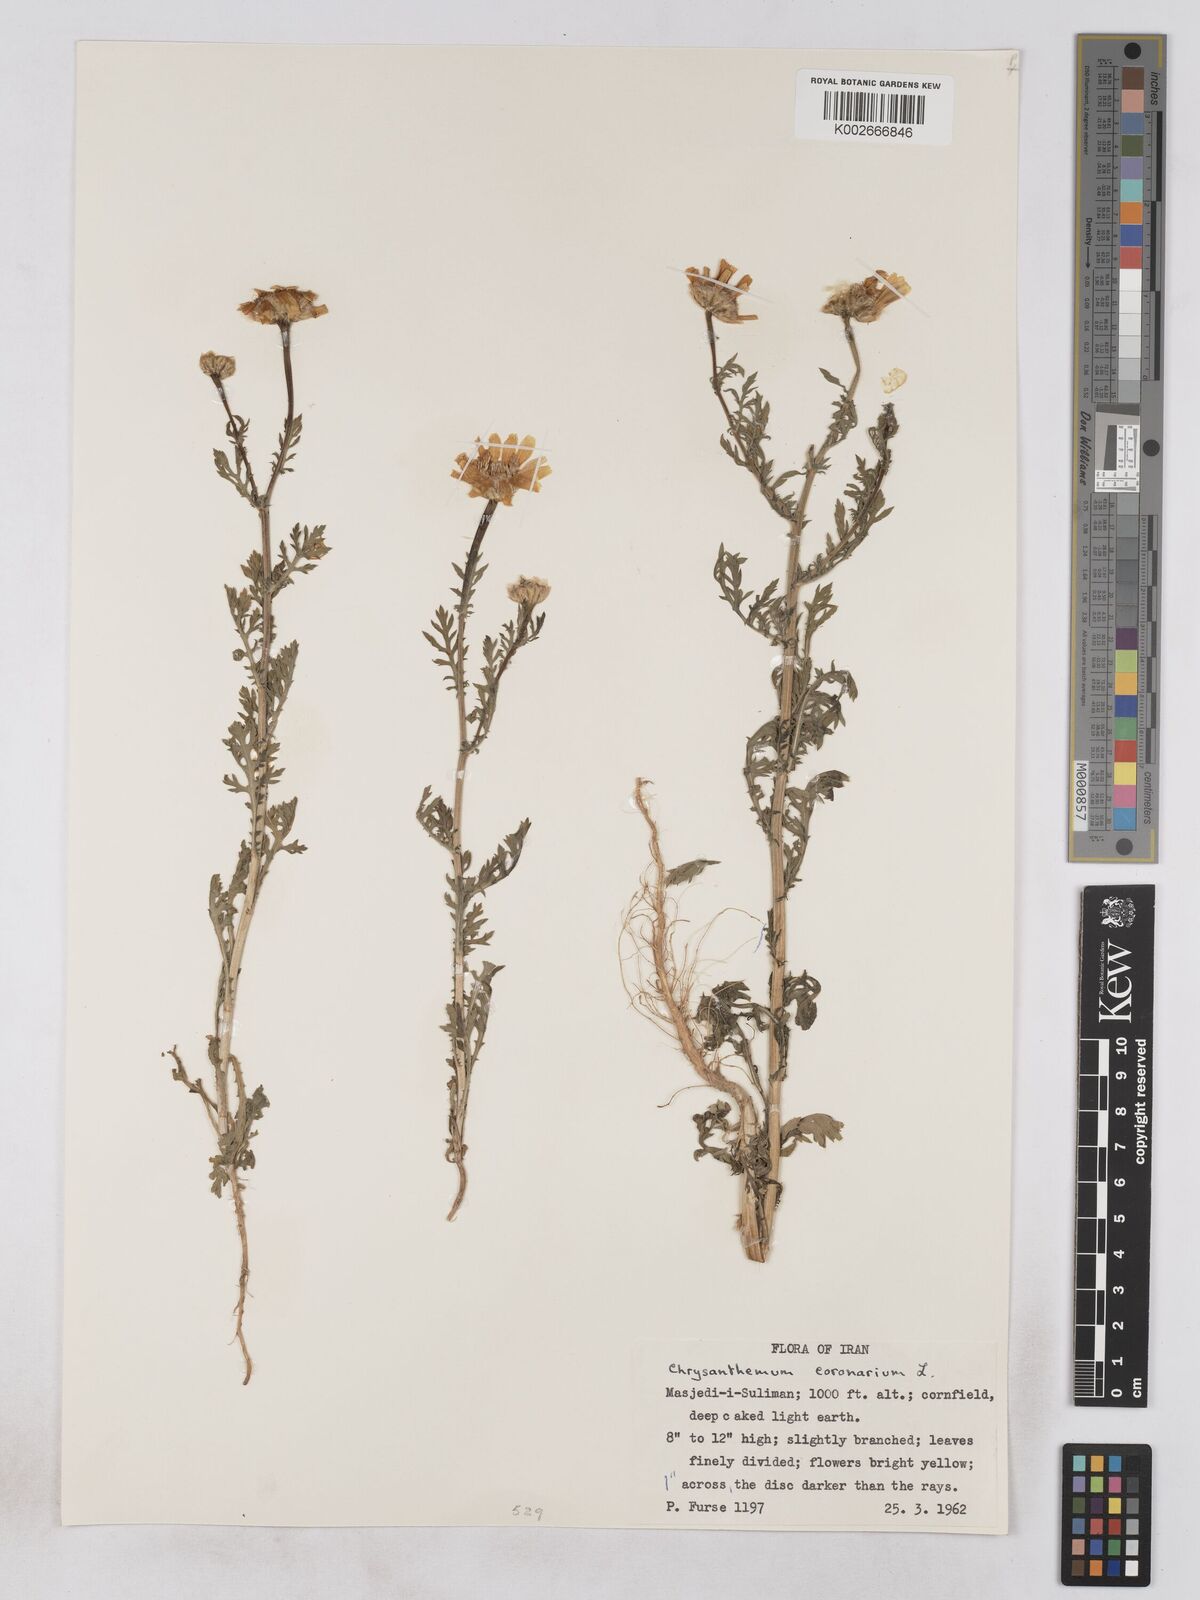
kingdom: Plantae
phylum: Tracheophyta
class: Magnoliopsida
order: Asterales
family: Asteraceae
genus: Glebionis
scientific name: Glebionis coronaria
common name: Crowndaisy
